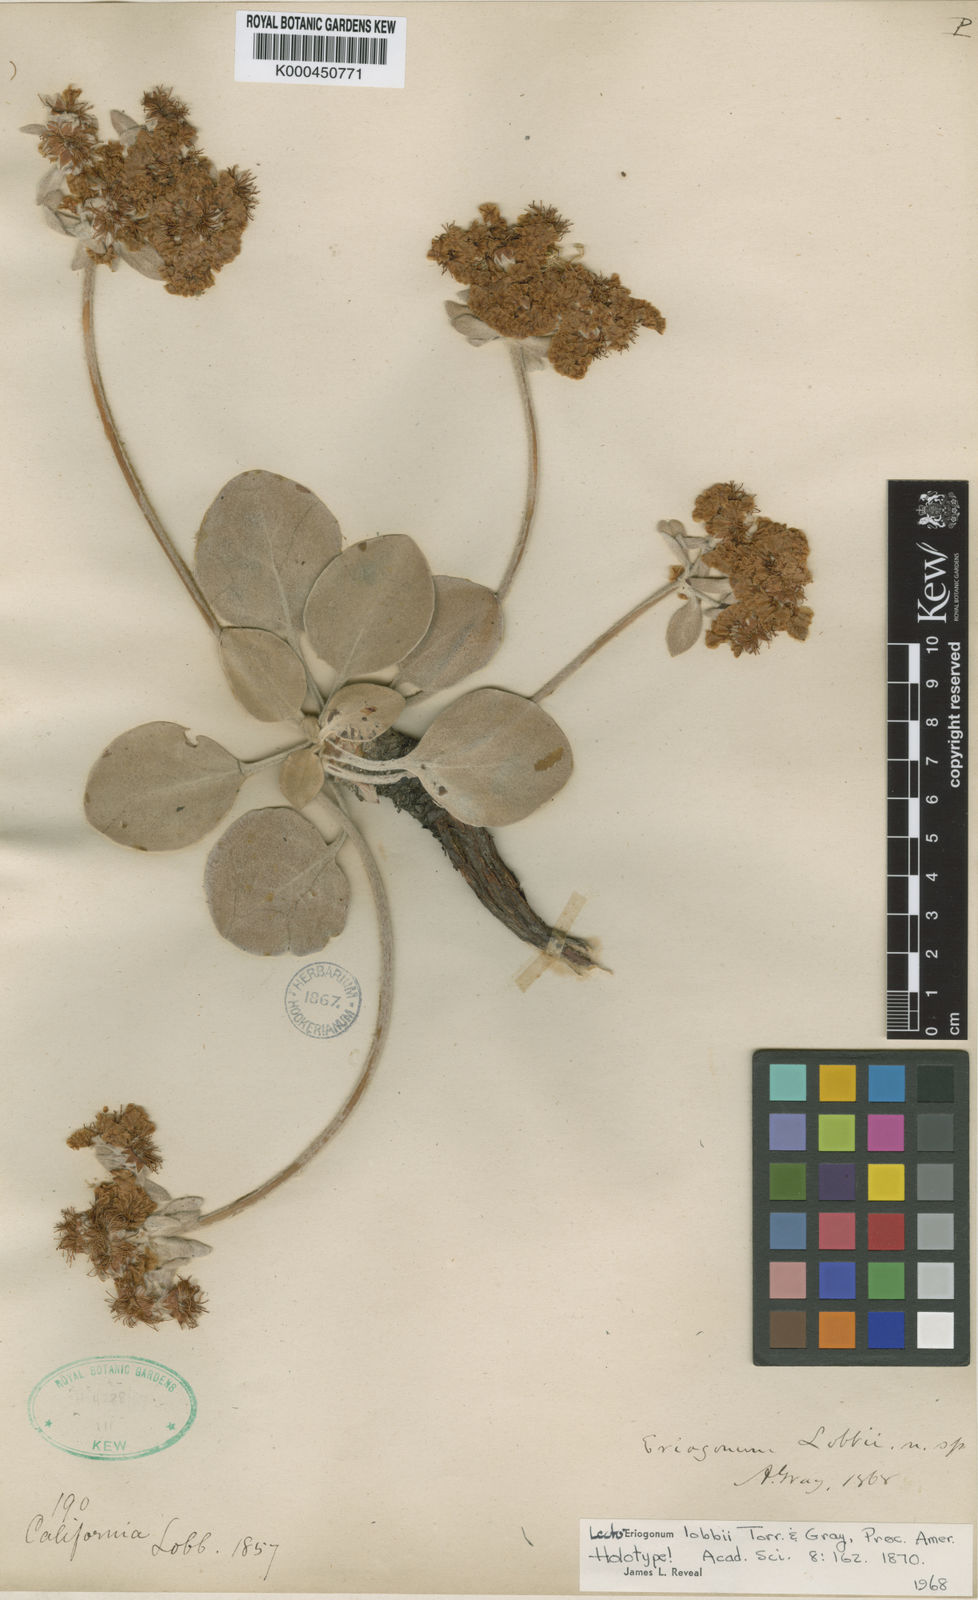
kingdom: Plantae
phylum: Tracheophyta
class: Magnoliopsida
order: Caryophyllales
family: Polygonaceae
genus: Eriogonum
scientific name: Eriogonum lobbii
